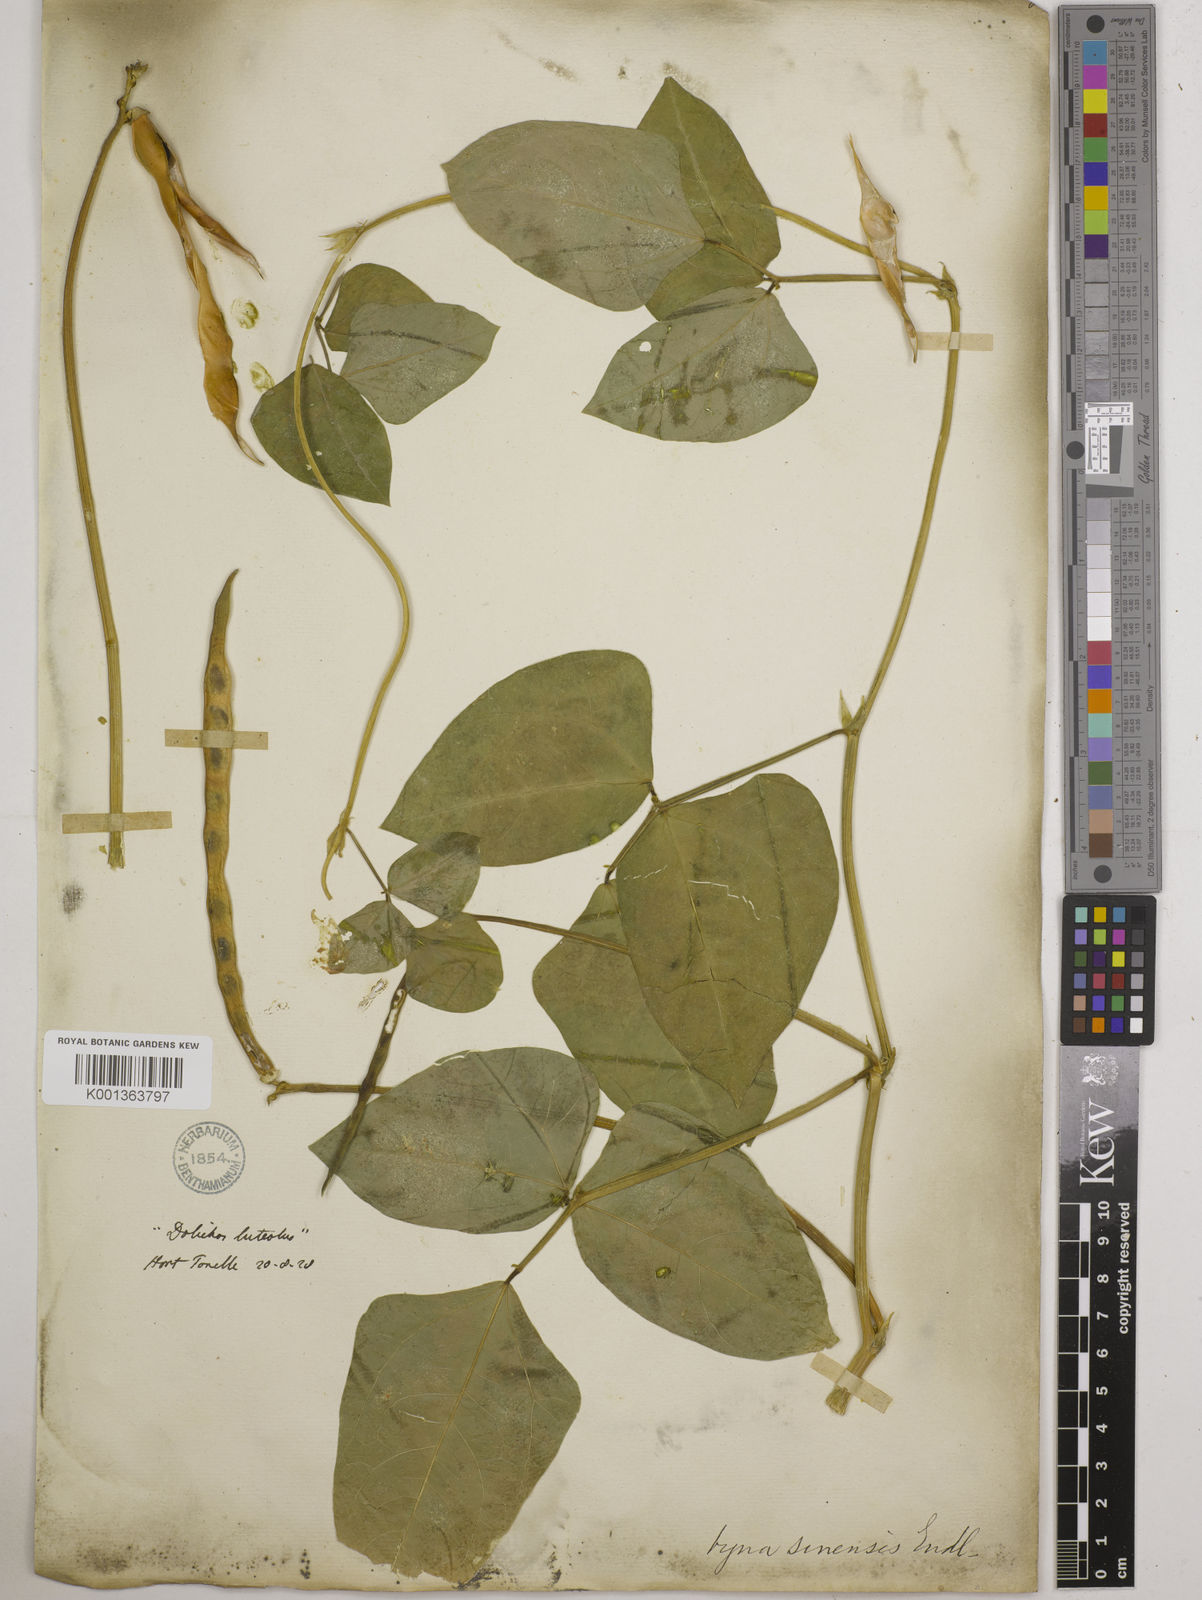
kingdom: Plantae
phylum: Tracheophyta
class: Magnoliopsida
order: Fabales
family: Fabaceae
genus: Vigna
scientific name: Vigna
